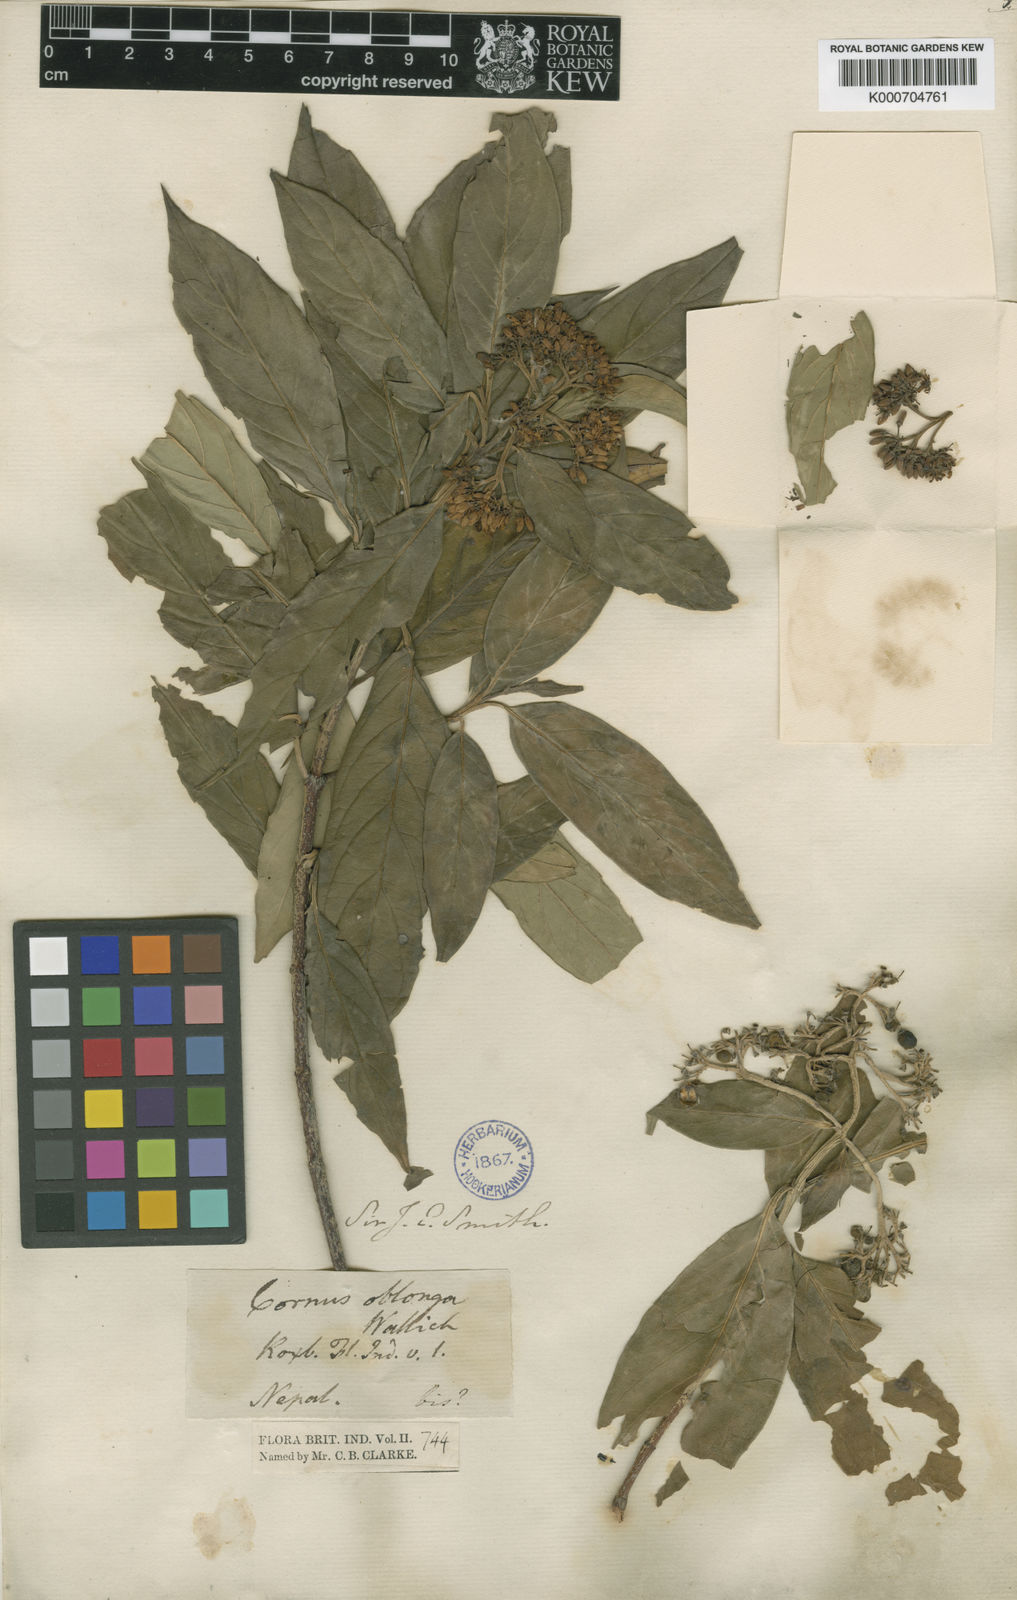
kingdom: Plantae
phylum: Tracheophyta
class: Magnoliopsida
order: Cornales
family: Cornaceae
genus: Cornus
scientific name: Cornus oblonga
